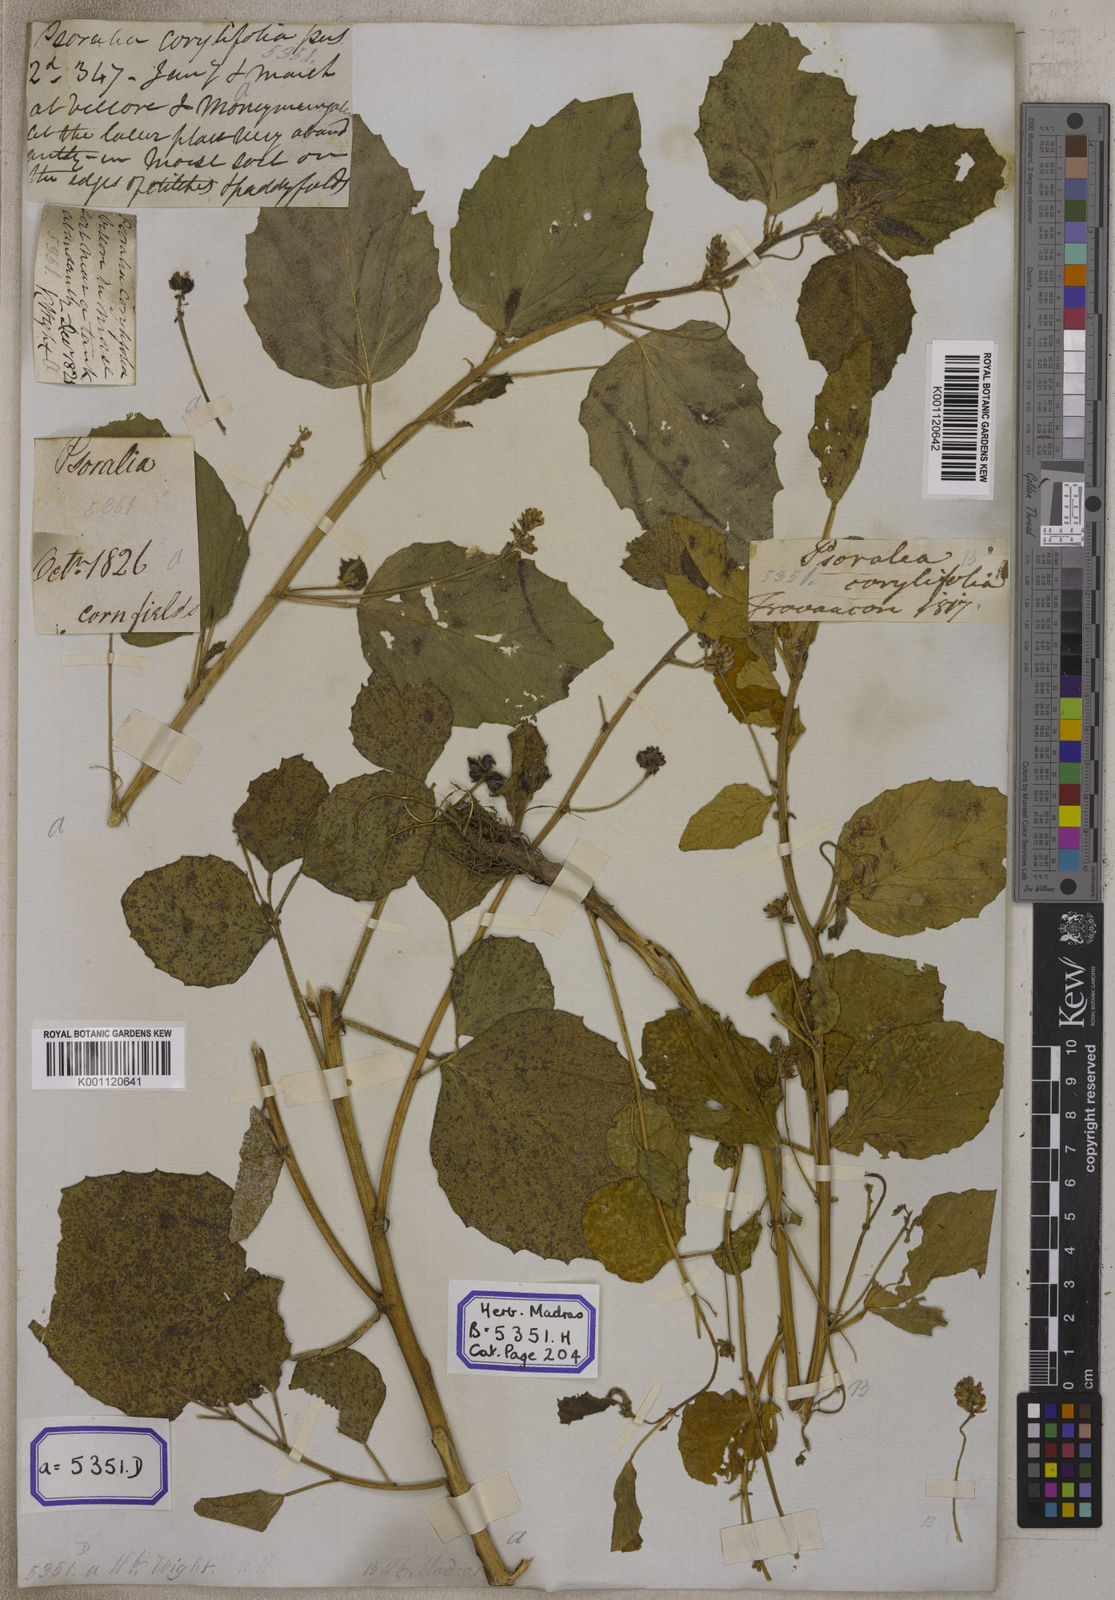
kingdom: Plantae
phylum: Tracheophyta
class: Magnoliopsida
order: Fabales
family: Fabaceae
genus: Cullen
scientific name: Cullen corylifolium
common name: Malaysian scurfpea
